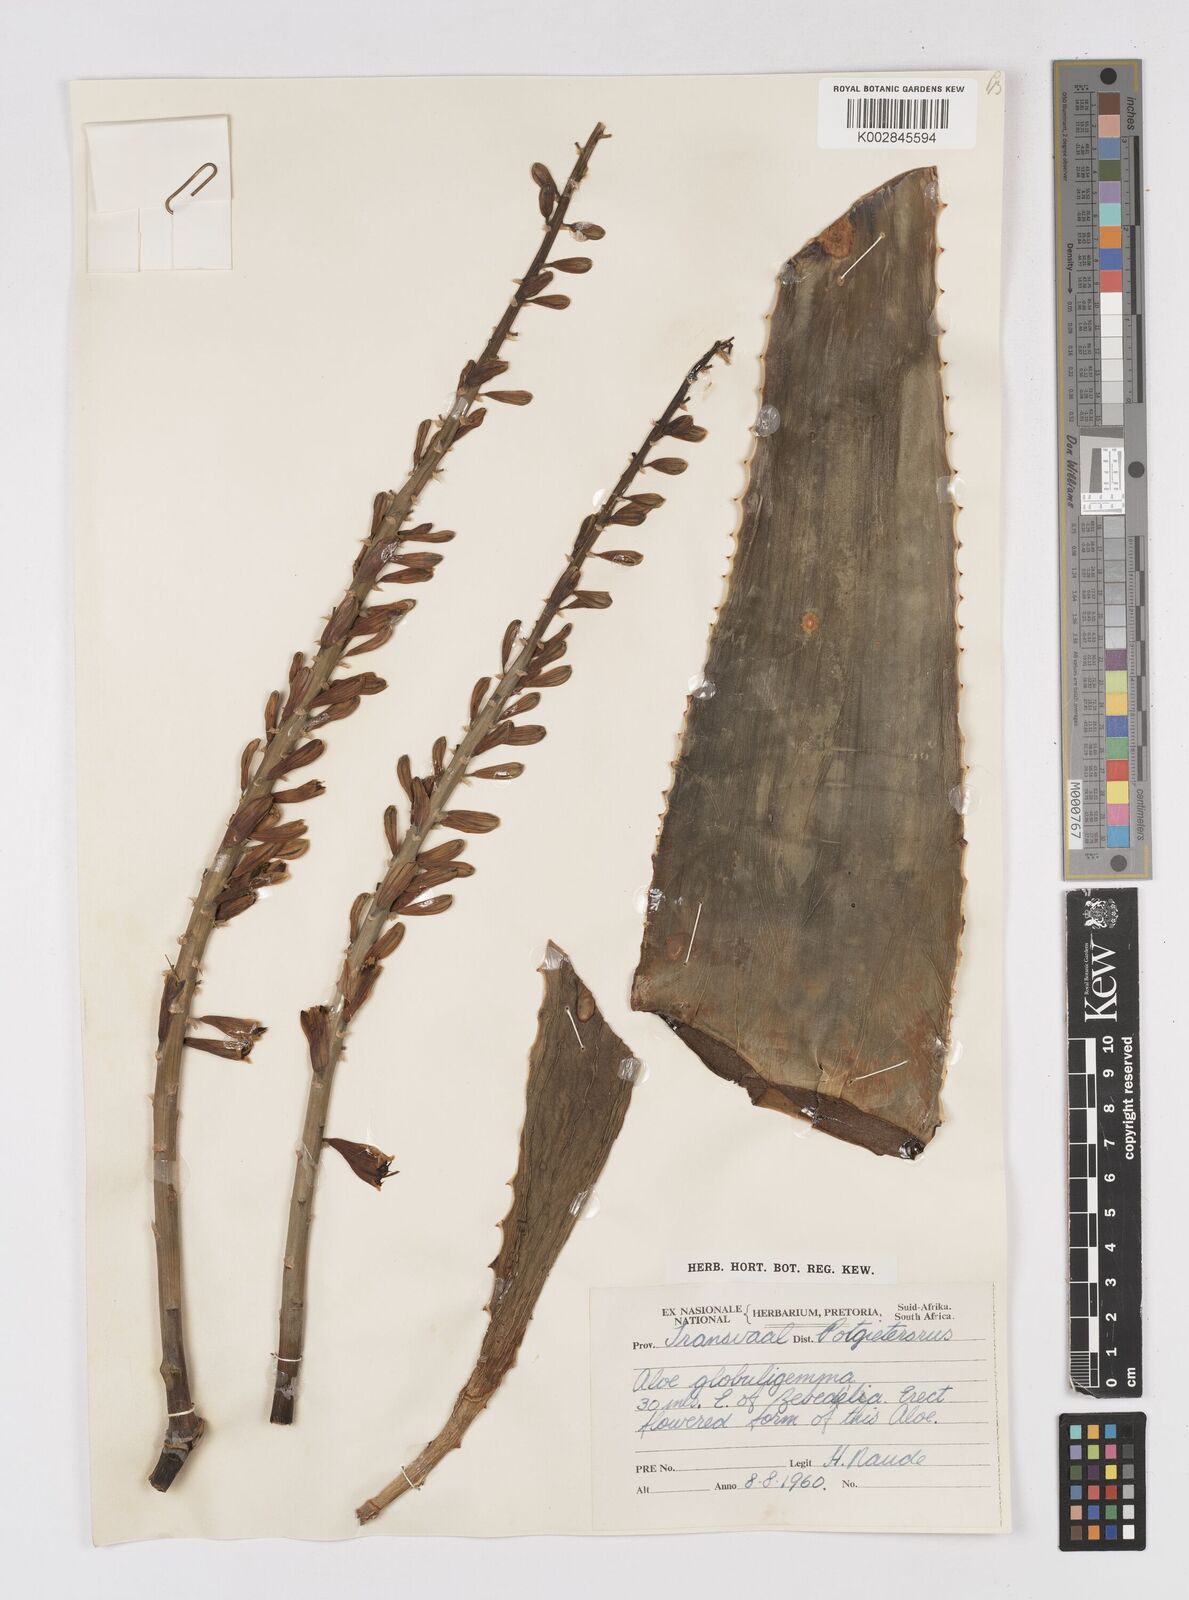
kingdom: Plantae
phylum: Tracheophyta
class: Liliopsida
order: Asparagales
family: Asphodelaceae
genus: Aloe
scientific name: Aloe globuligemma
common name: Witchdoctor's aloe
